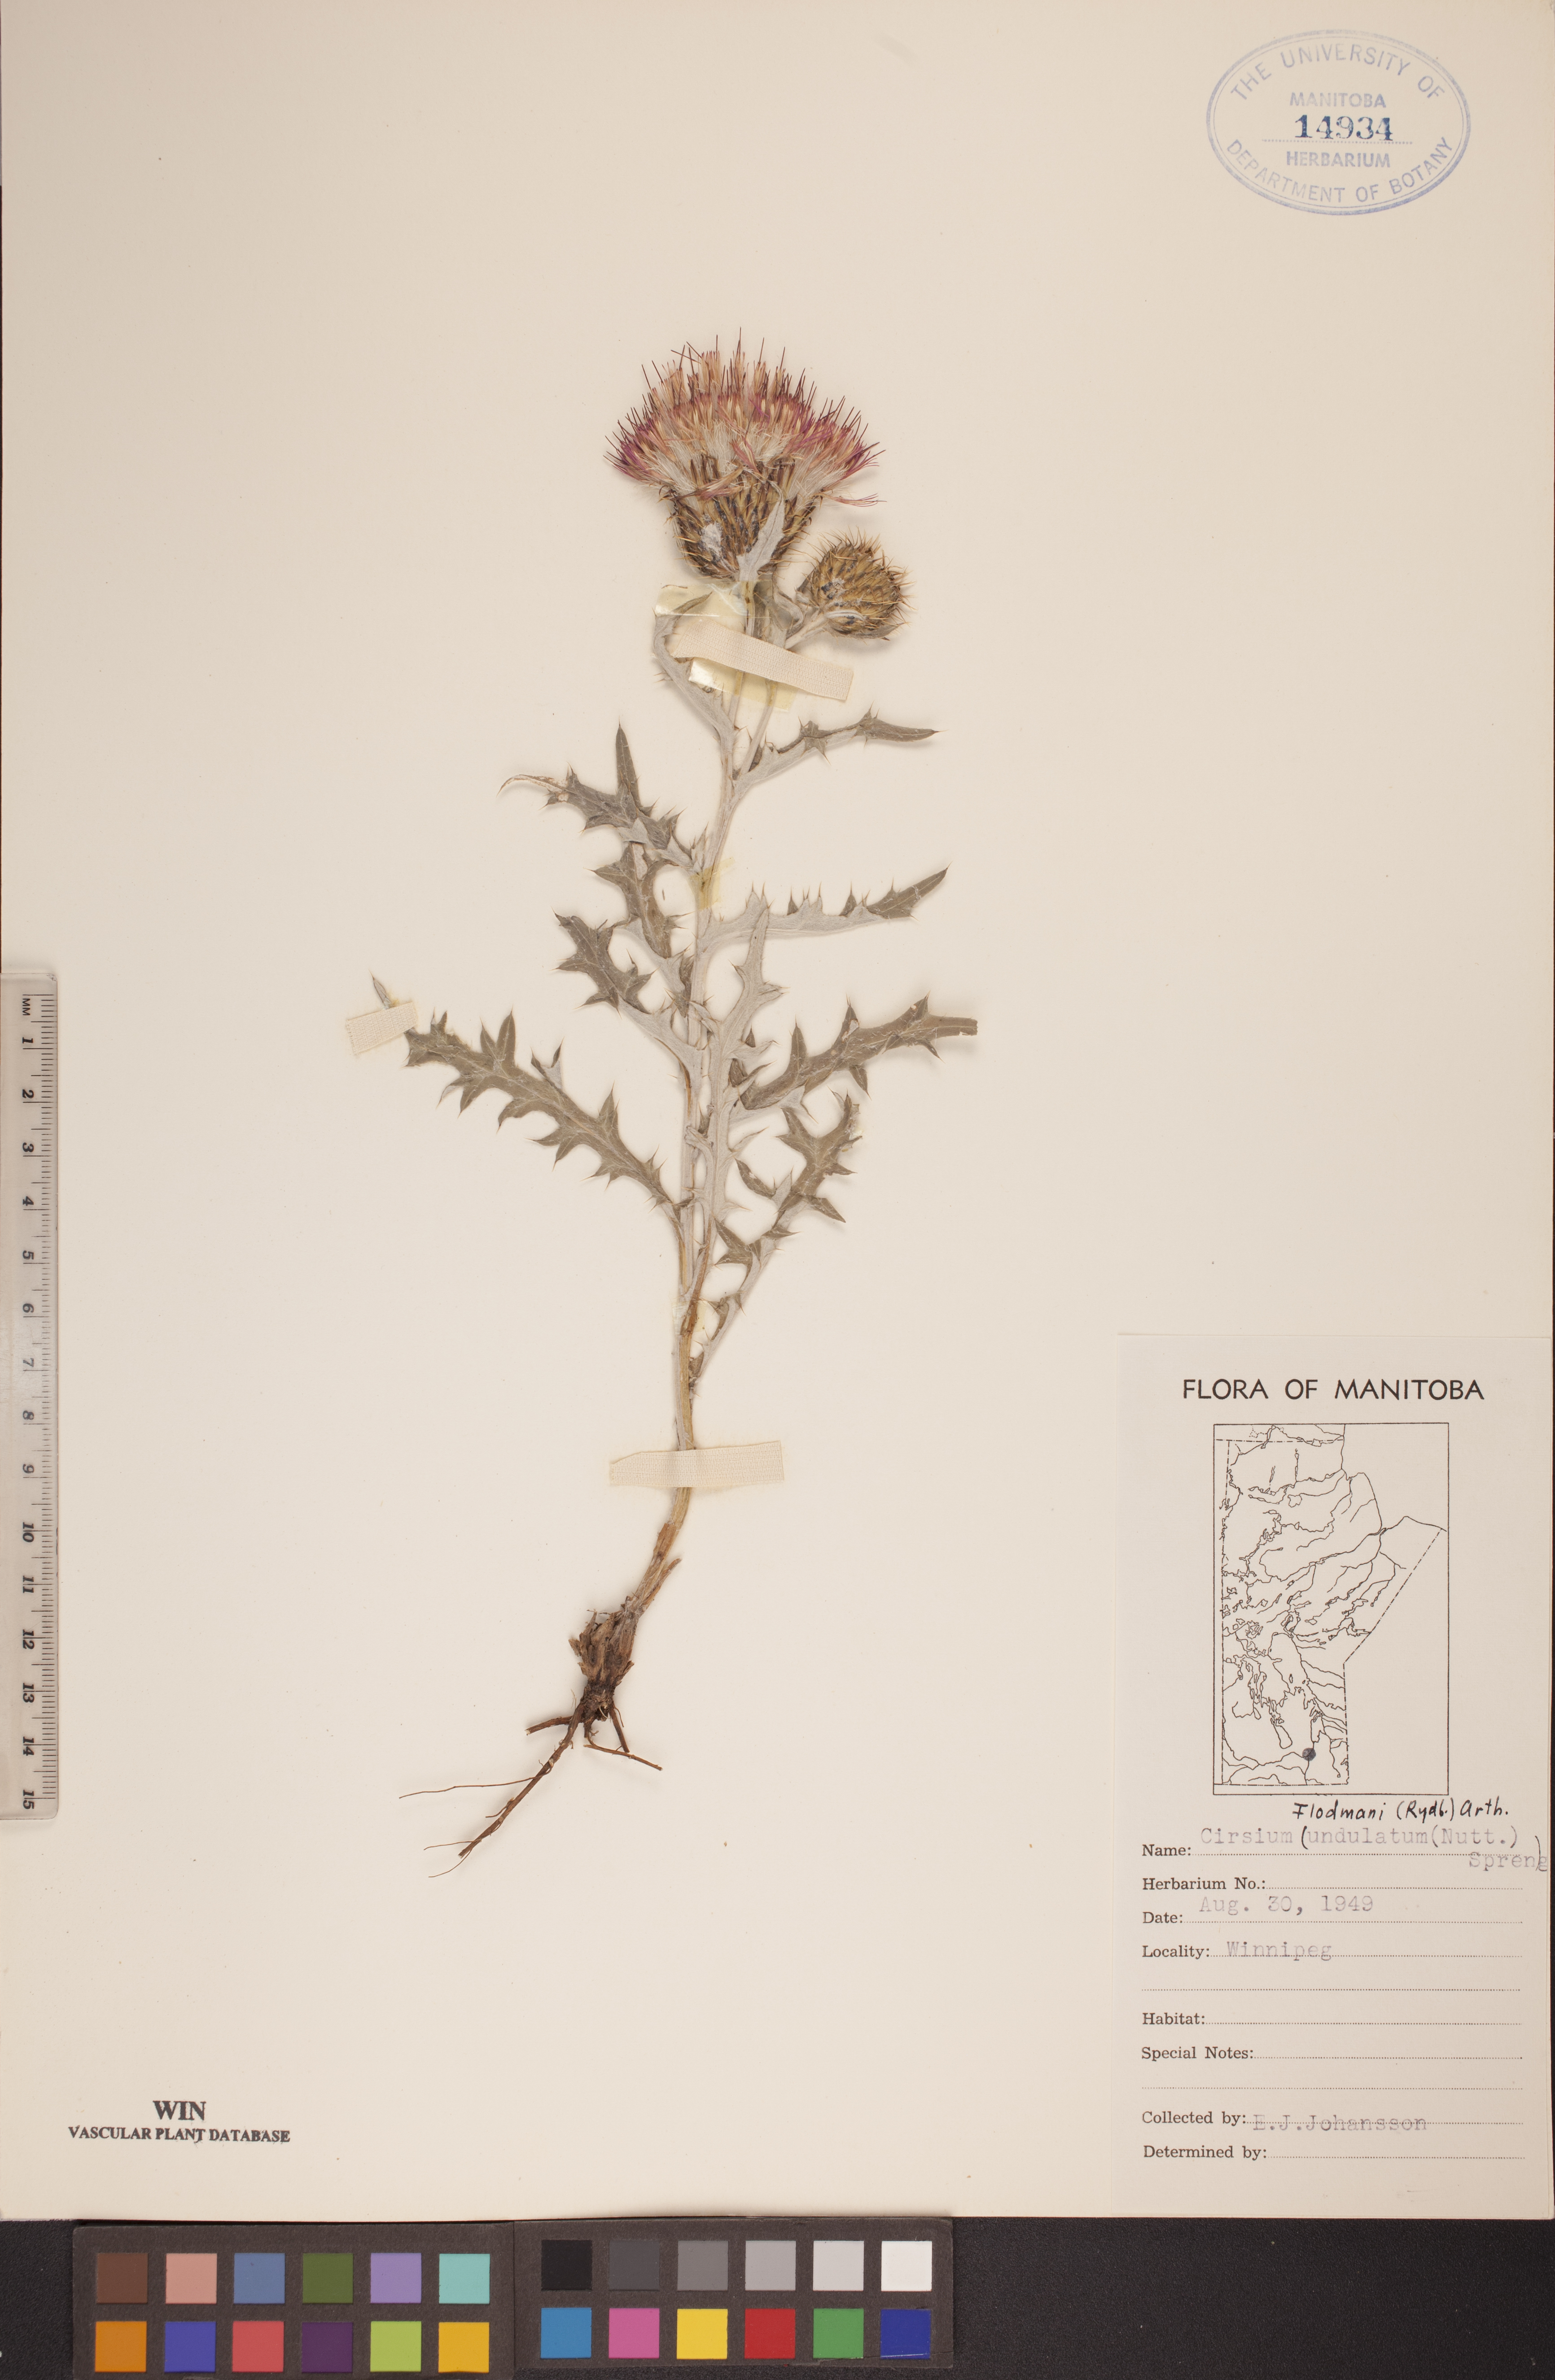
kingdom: Plantae
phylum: Tracheophyta
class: Magnoliopsida
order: Asterales
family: Asteraceae
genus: Cirsium
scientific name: Cirsium flodmanii
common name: Flodman's thistle
